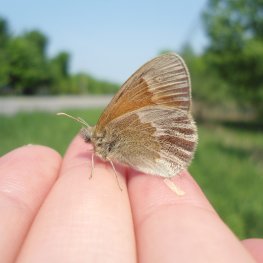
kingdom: Animalia
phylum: Arthropoda
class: Insecta
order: Lepidoptera
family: Nymphalidae
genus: Coenonympha
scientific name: Coenonympha tullia
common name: Large Heath
